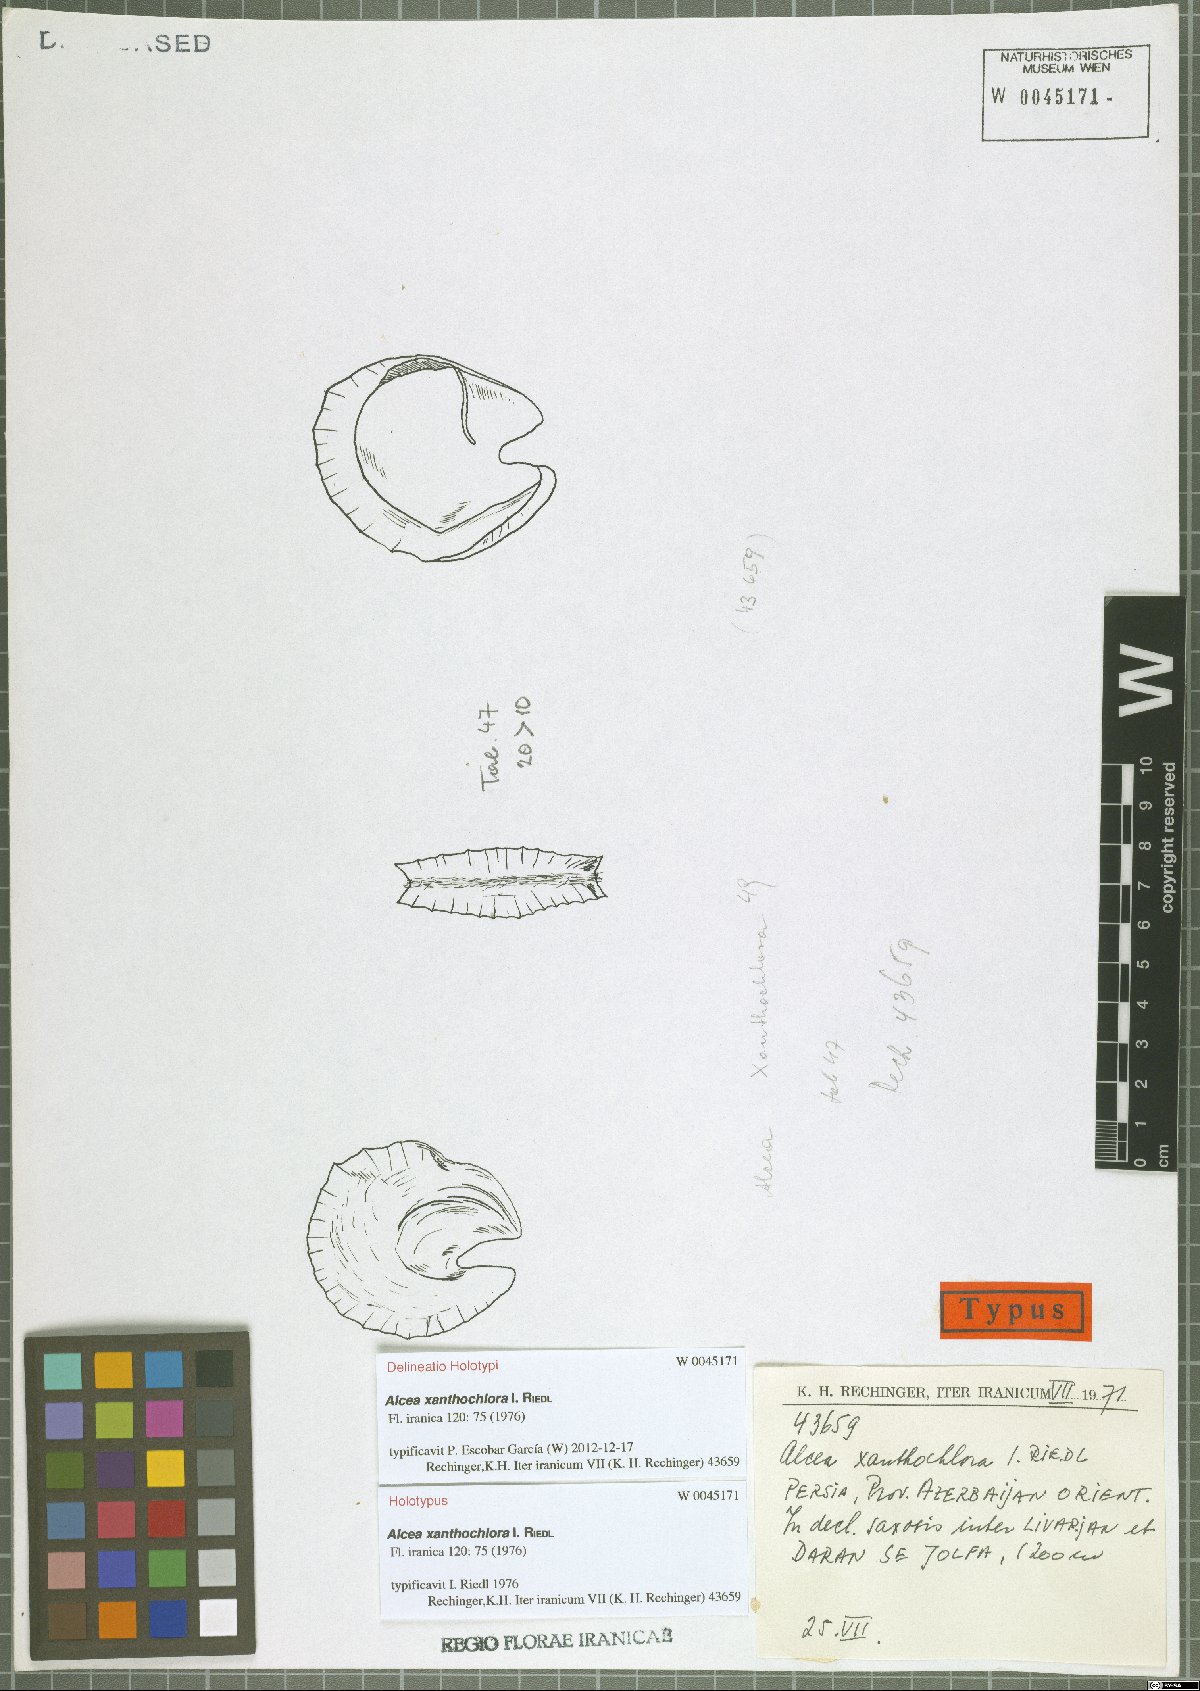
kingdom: Plantae
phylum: Tracheophyta
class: Magnoliopsida
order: Malvales
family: Malvaceae
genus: Alcea
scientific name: Alcea xanthochlora
